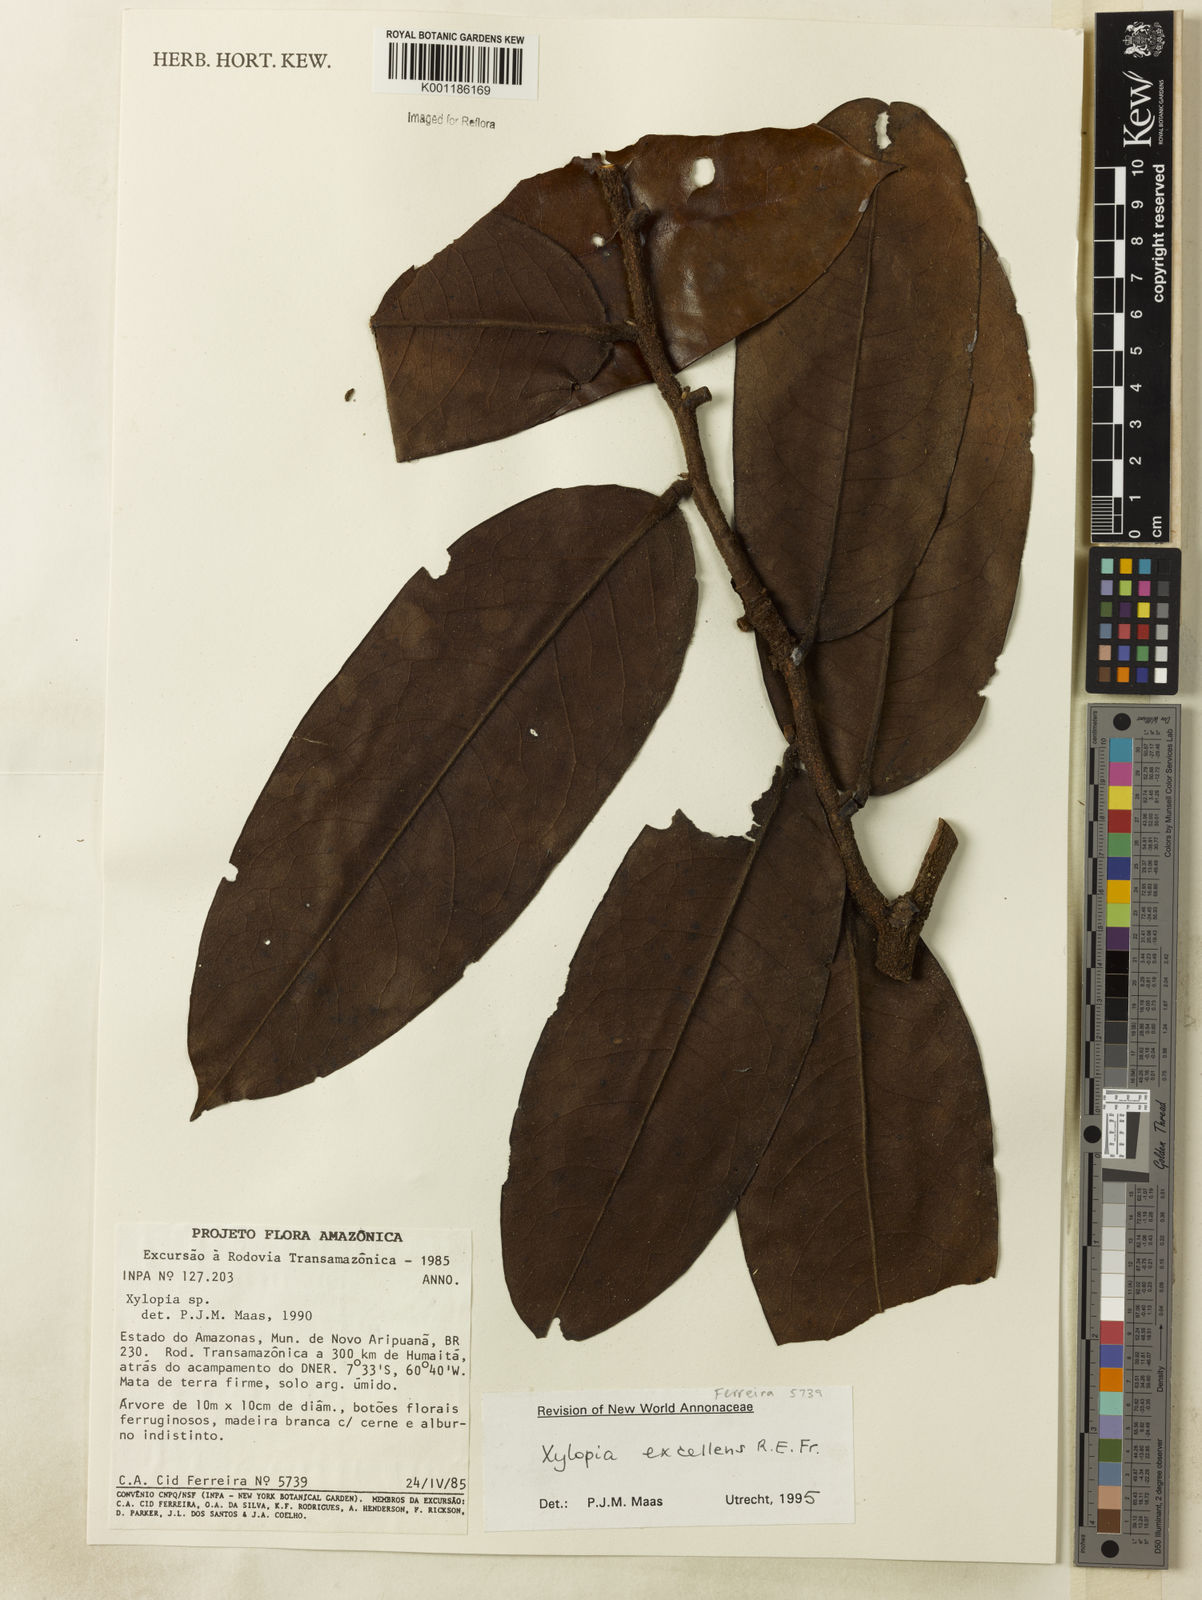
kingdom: Plantae
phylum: Tracheophyta
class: Magnoliopsida
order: Magnoliales
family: Annonaceae
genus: Xylopia
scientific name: Xylopia excellens
